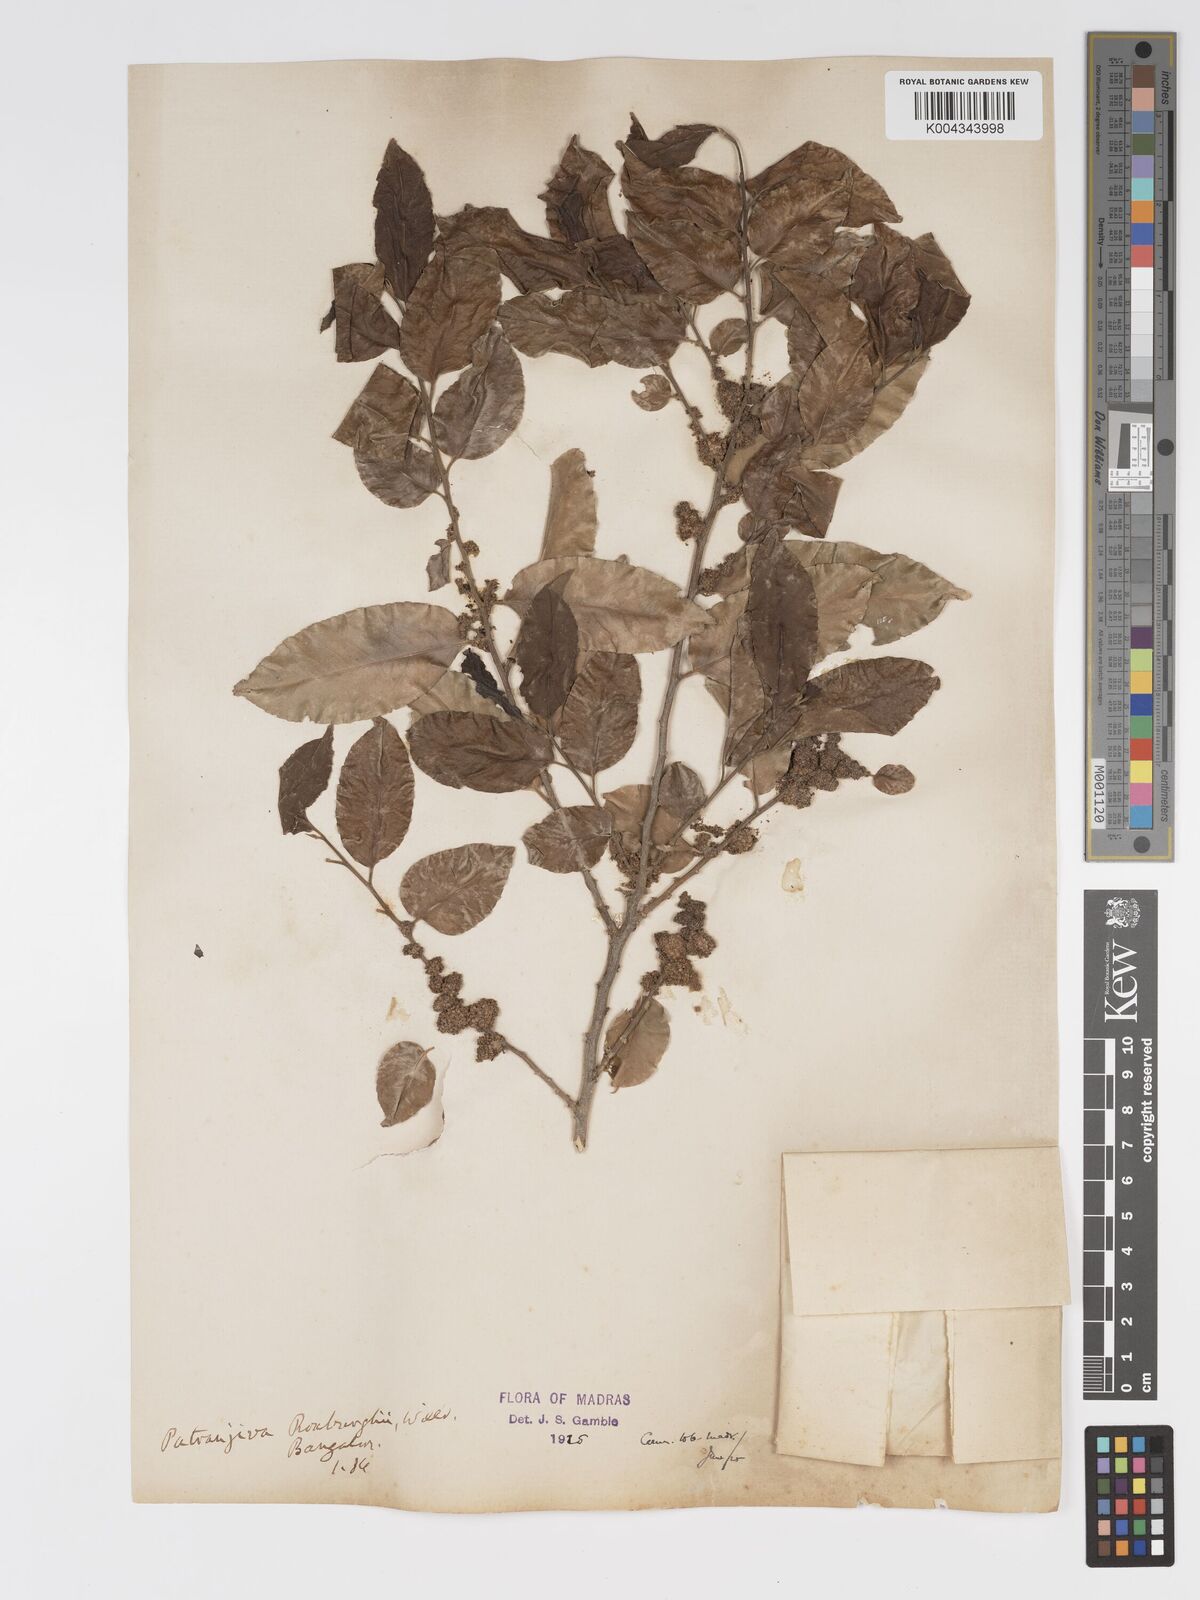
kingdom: Plantae
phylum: Tracheophyta
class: Magnoliopsida
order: Malpighiales
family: Putranjivaceae
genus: Putranjiva
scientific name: Putranjiva roxburghii
